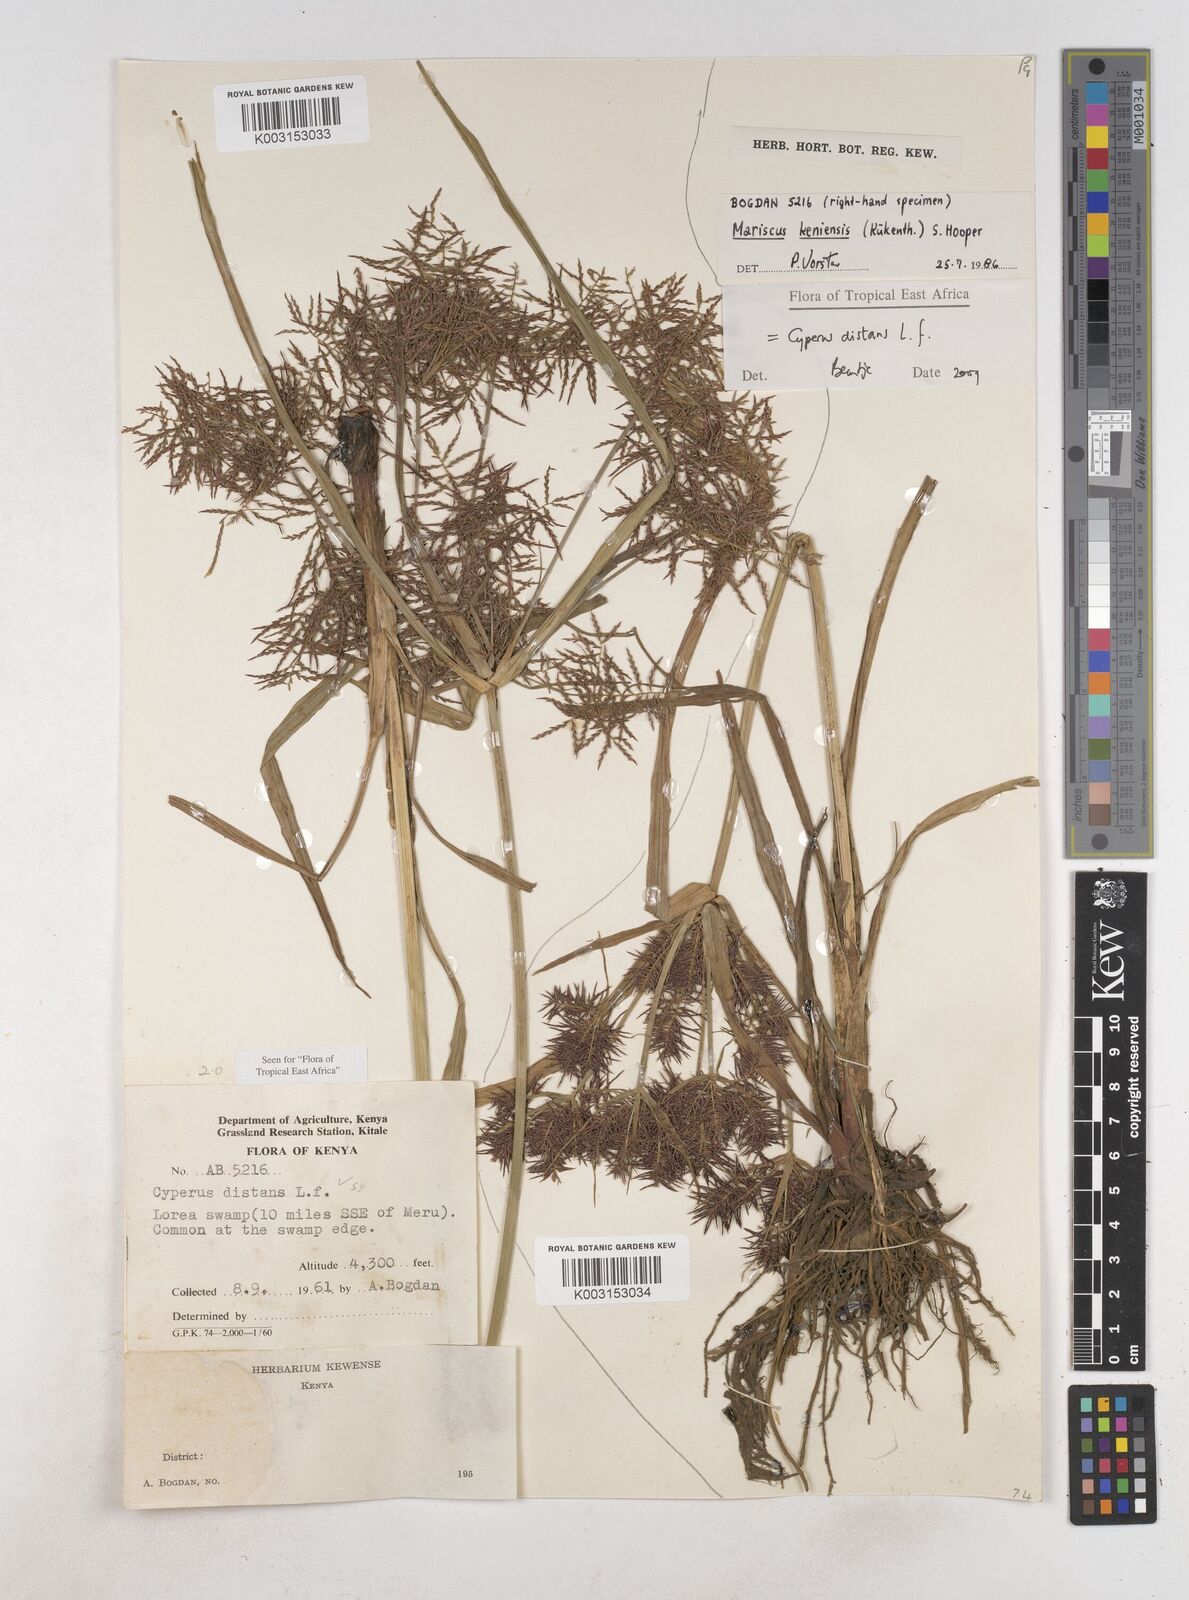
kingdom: Plantae
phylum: Tracheophyta
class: Liliopsida
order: Poales
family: Cyperaceae
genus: Cyperus
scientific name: Cyperus distans
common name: Slender cyperus
